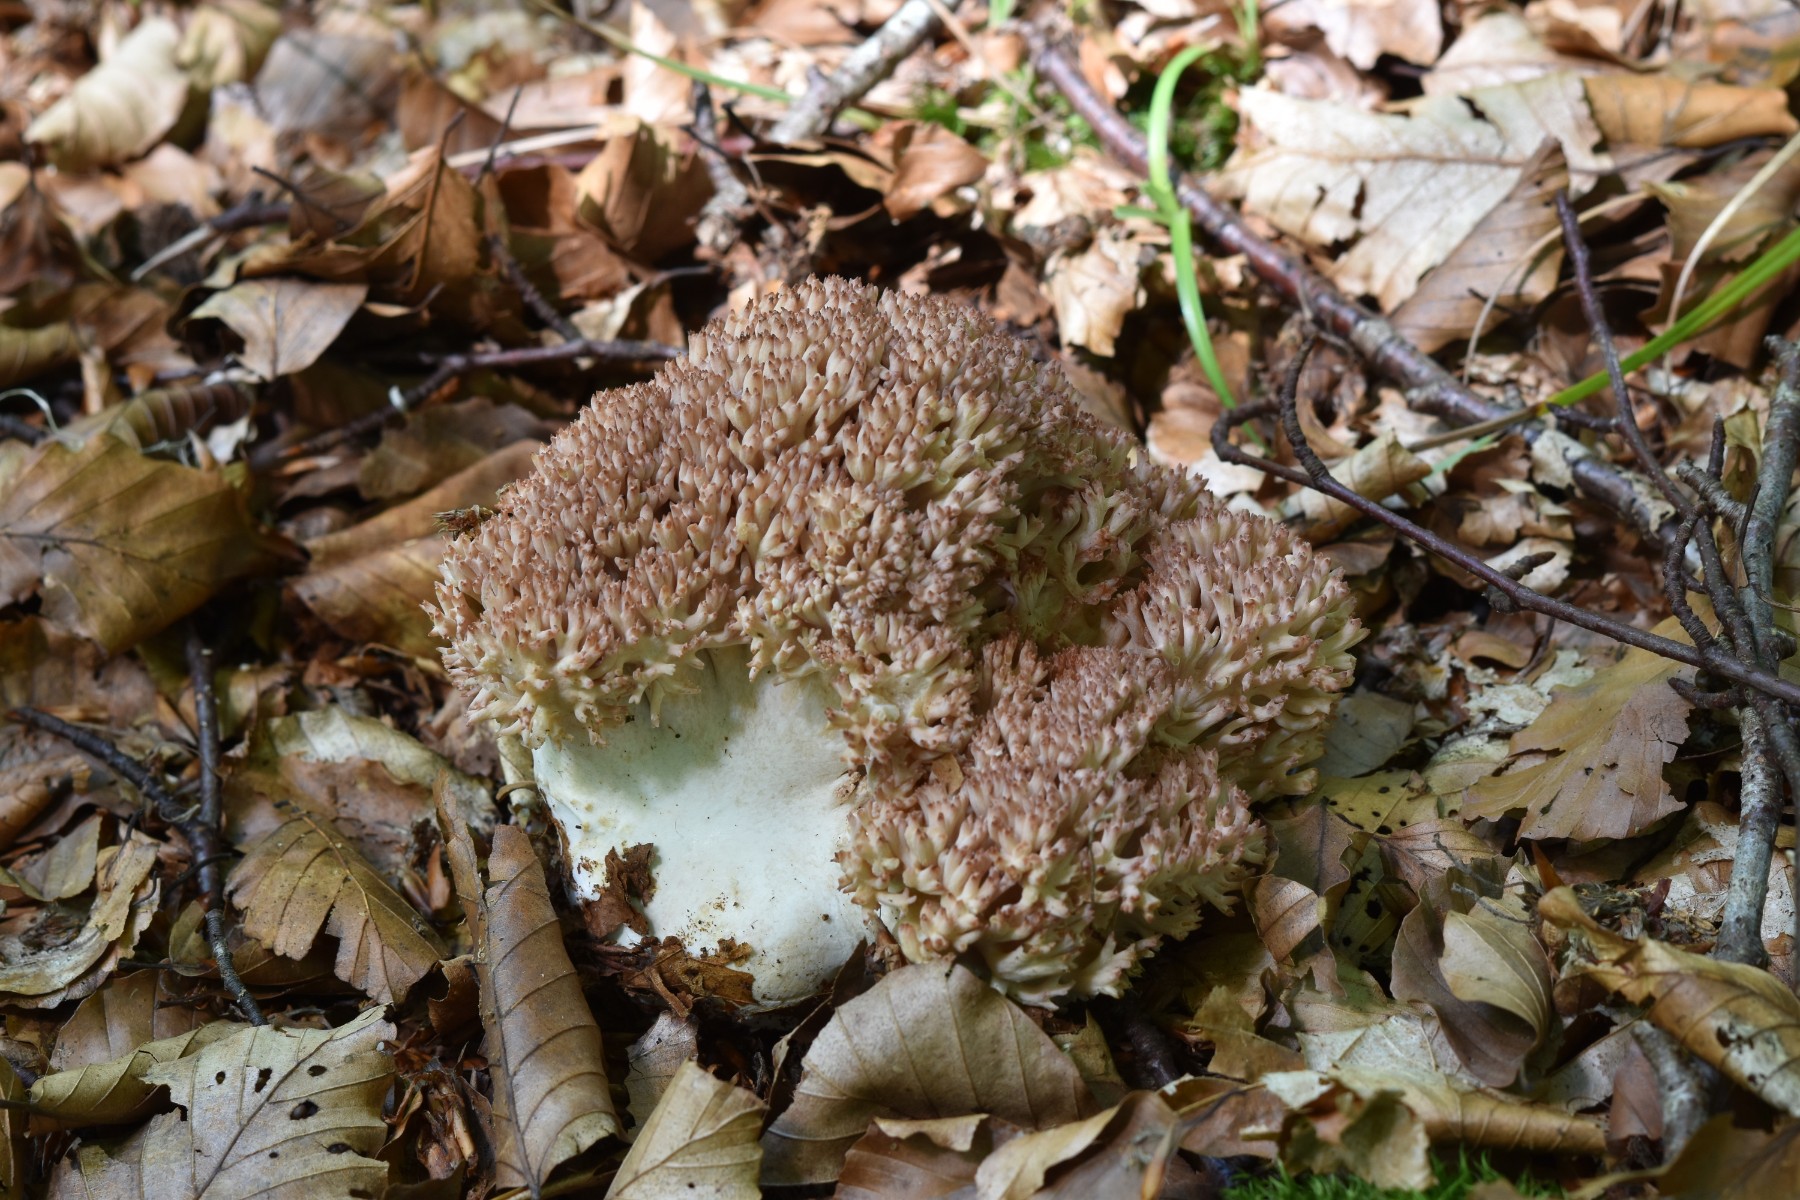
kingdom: Fungi
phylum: Basidiomycota
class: Agaricomycetes
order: Gomphales
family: Gomphaceae
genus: Ramaria
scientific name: Ramaria botrytis
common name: drue-koralsvamp
